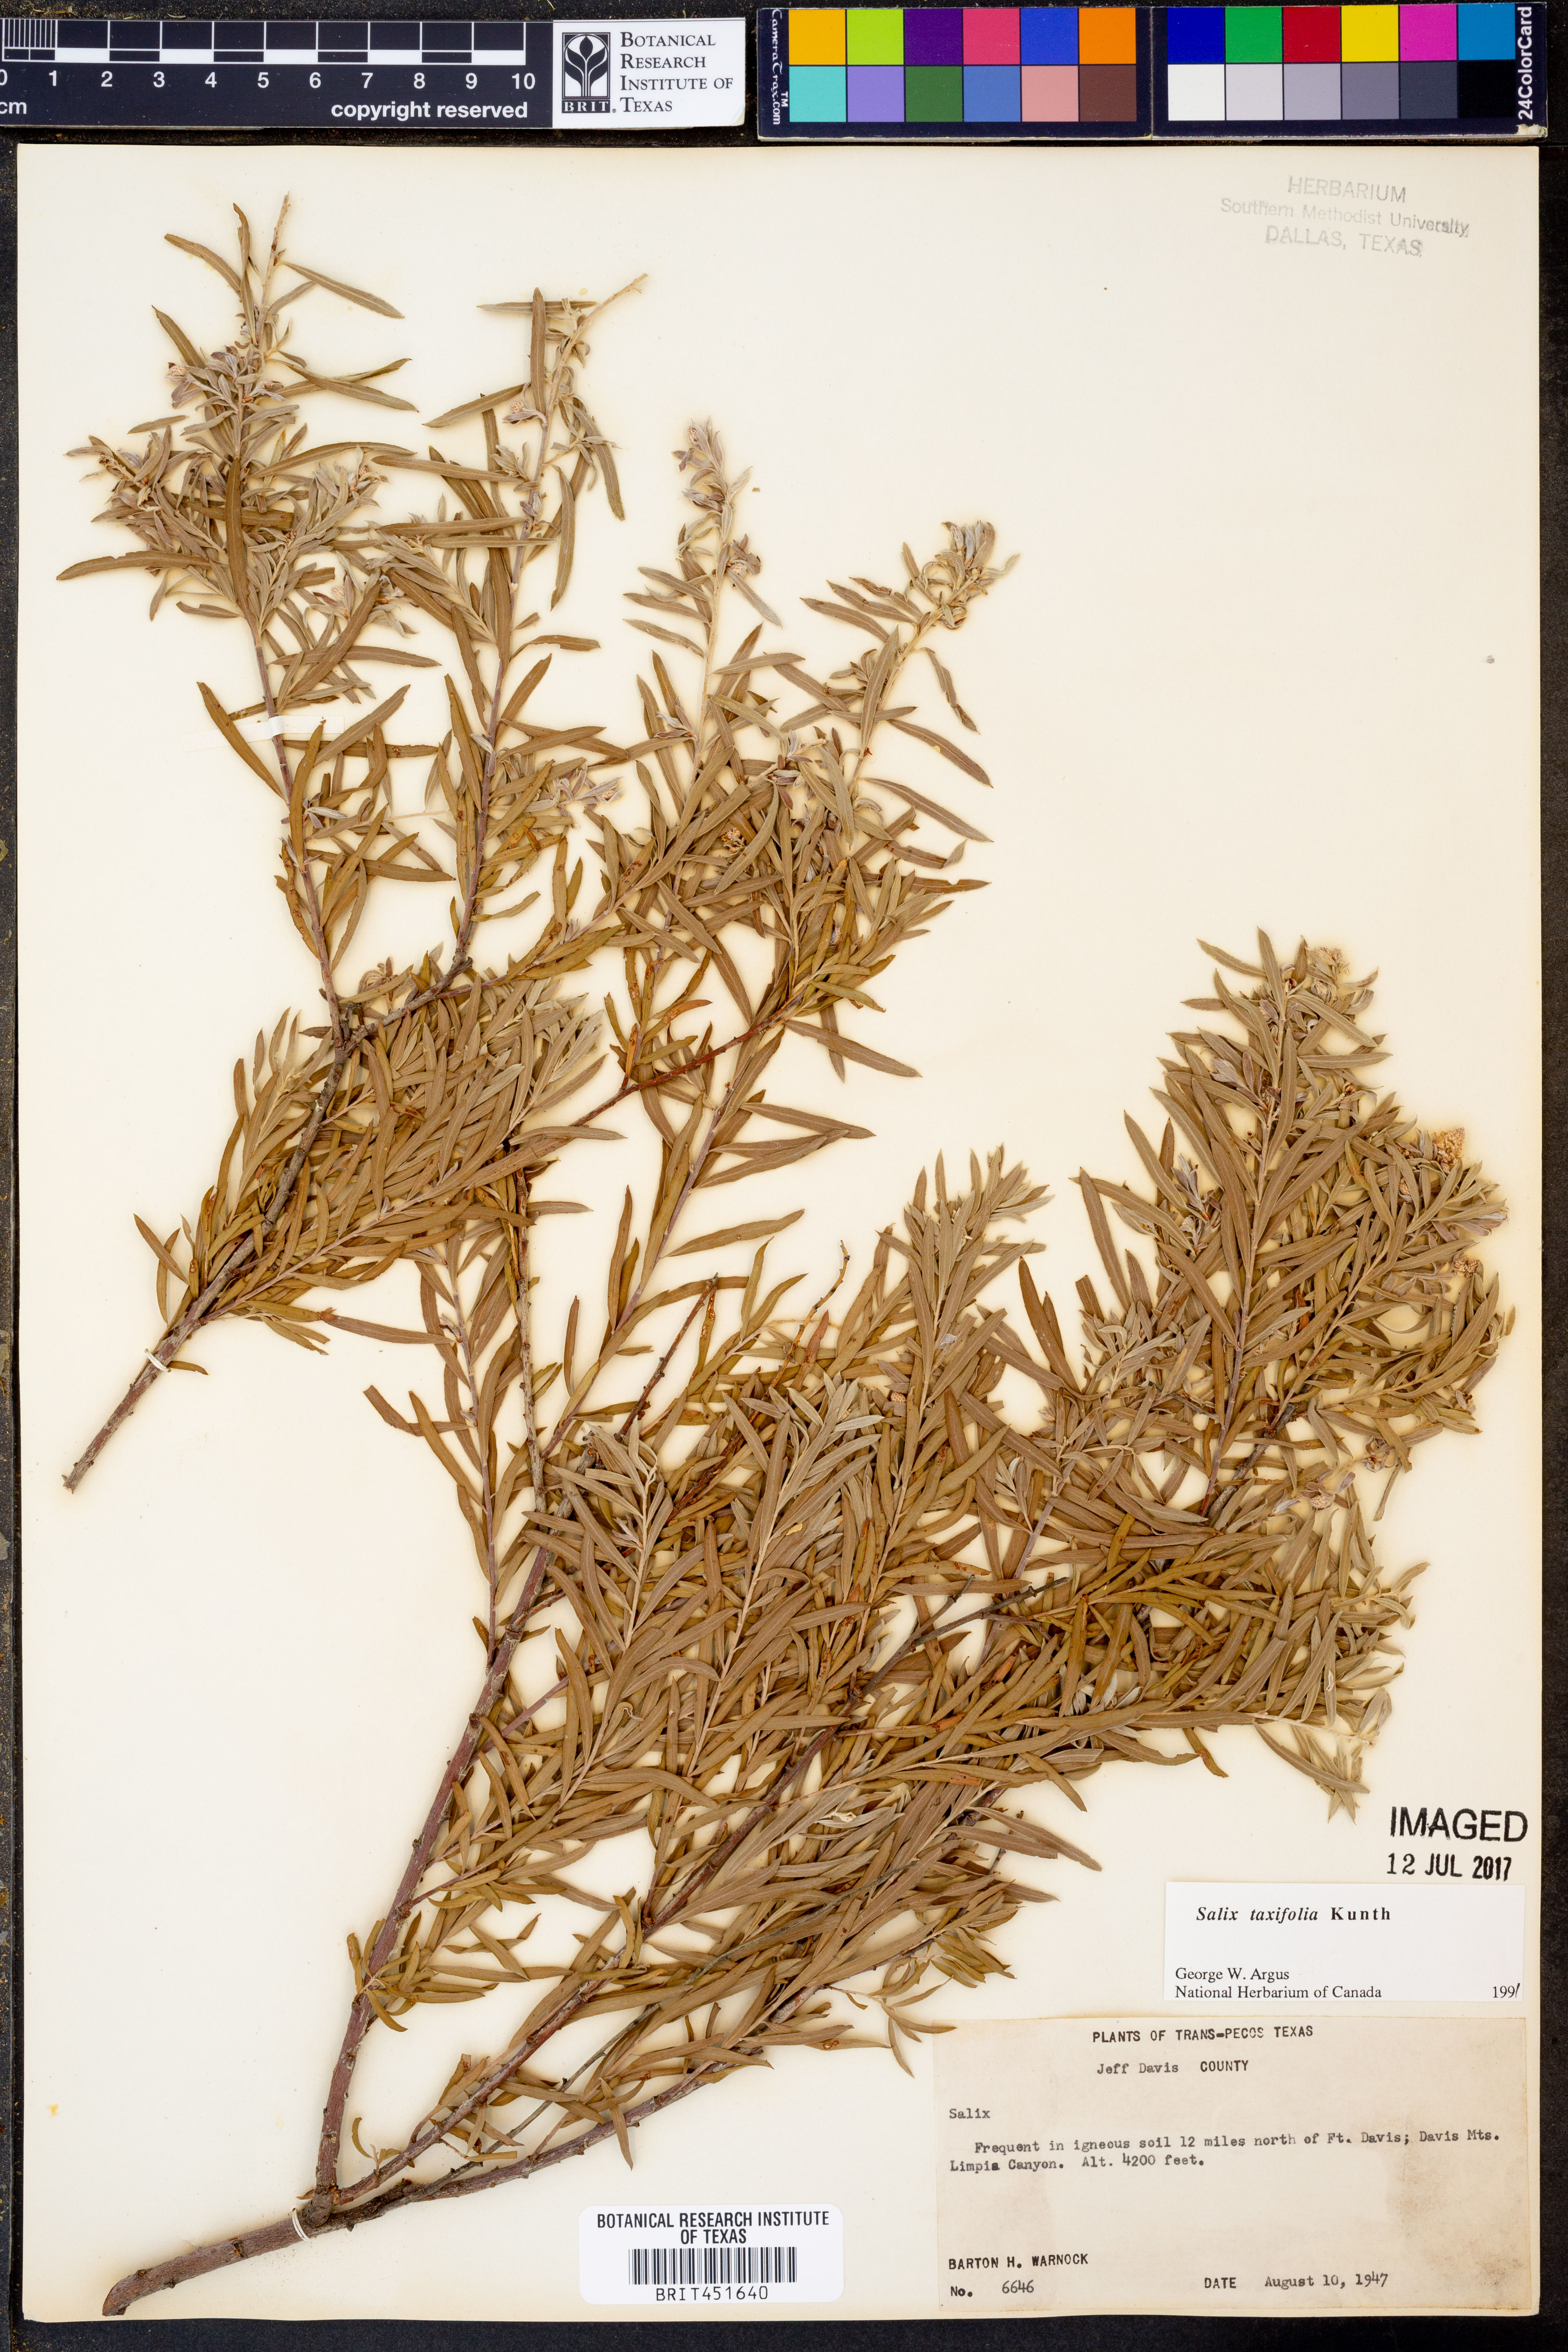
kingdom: Plantae
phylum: Tracheophyta
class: Magnoliopsida
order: Malpighiales
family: Salicaceae
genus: Salix
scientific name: Salix taxifolia
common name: Yew-leaf willow
